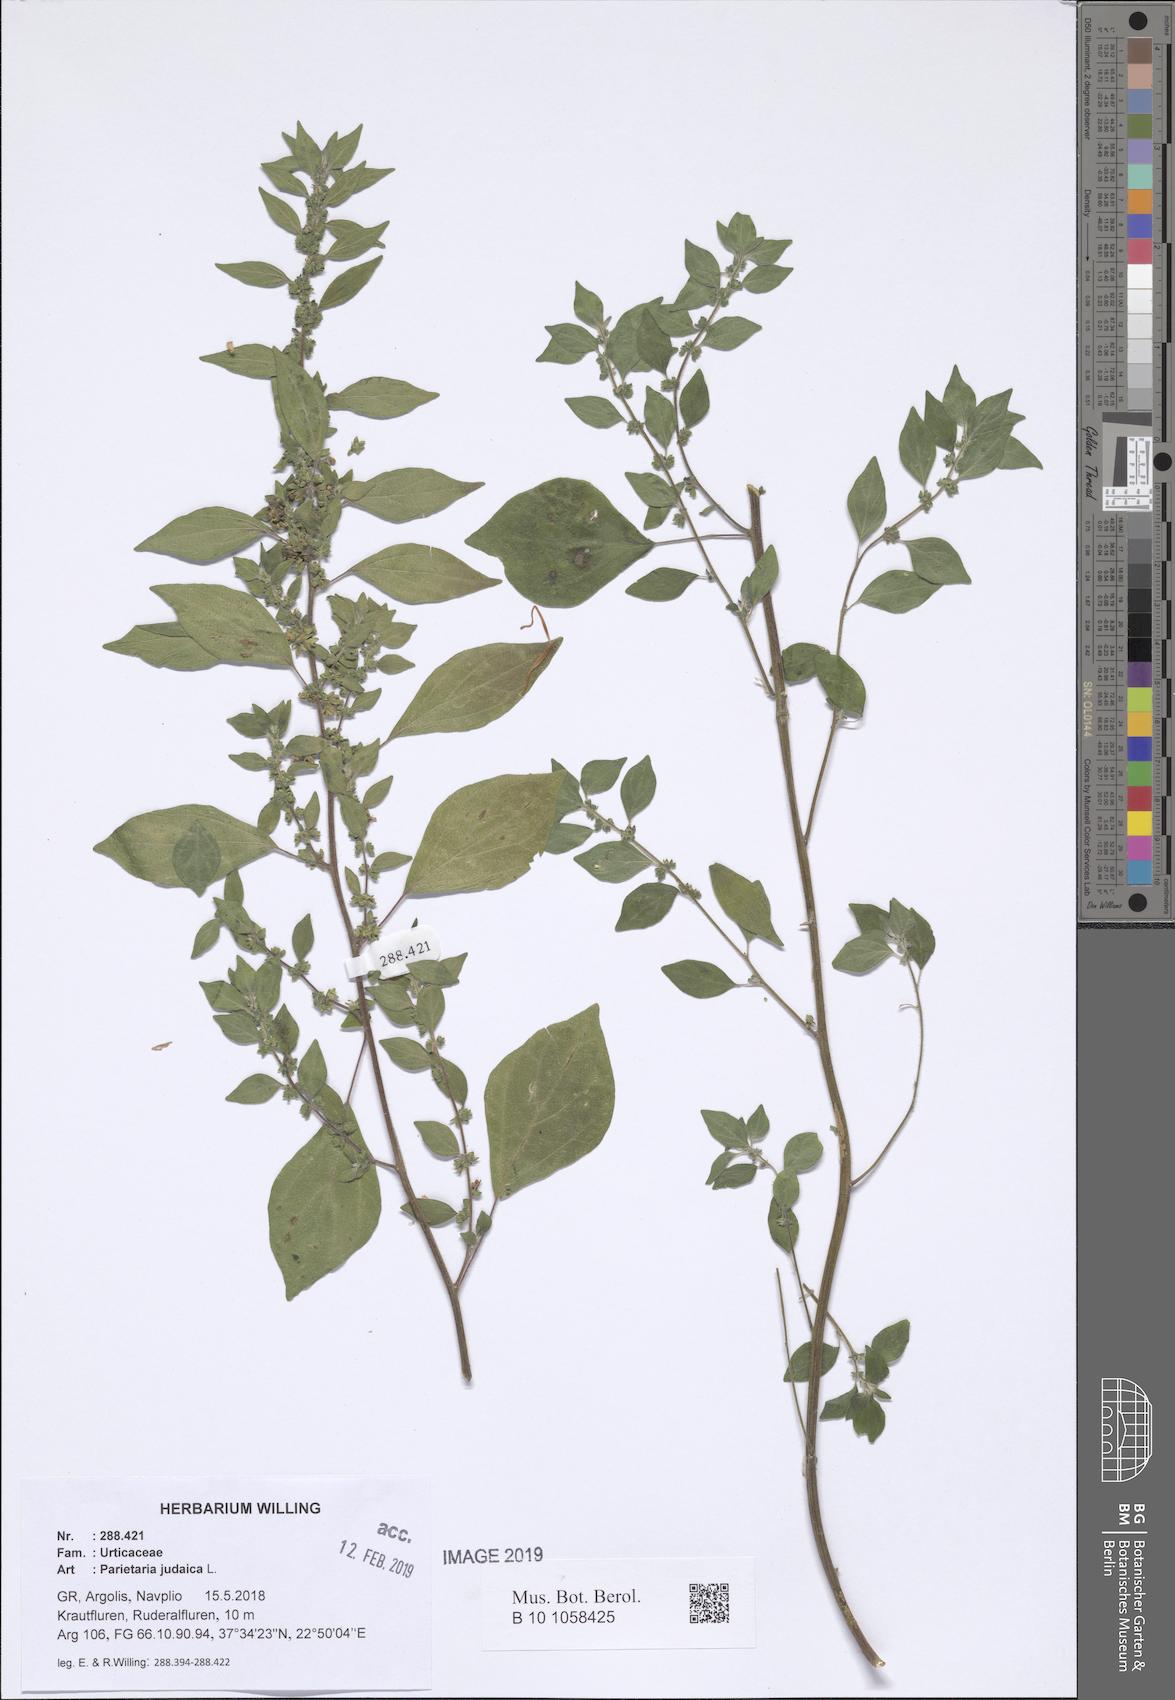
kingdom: Plantae
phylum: Tracheophyta
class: Magnoliopsida
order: Rosales
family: Urticaceae
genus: Parietaria
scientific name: Parietaria judaica
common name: Pellitory-of-the-wall
